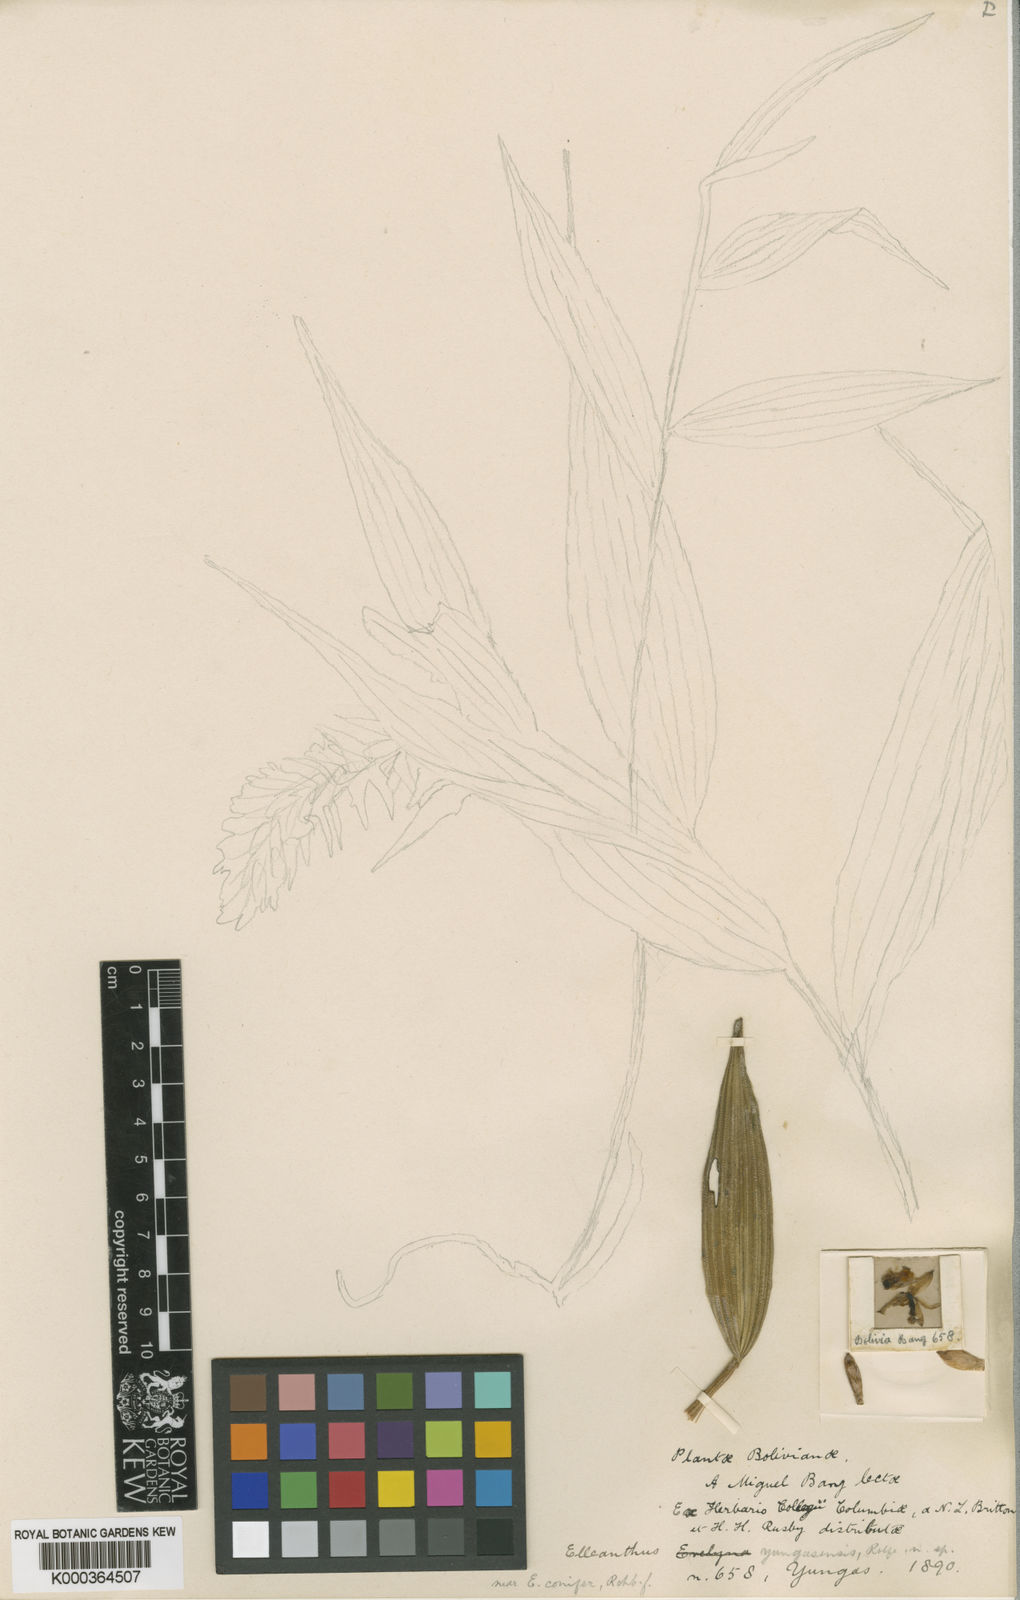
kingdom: Plantae
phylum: Tracheophyta
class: Liliopsida
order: Asparagales
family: Orchidaceae
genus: Elleanthus
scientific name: Elleanthus yungasensis
